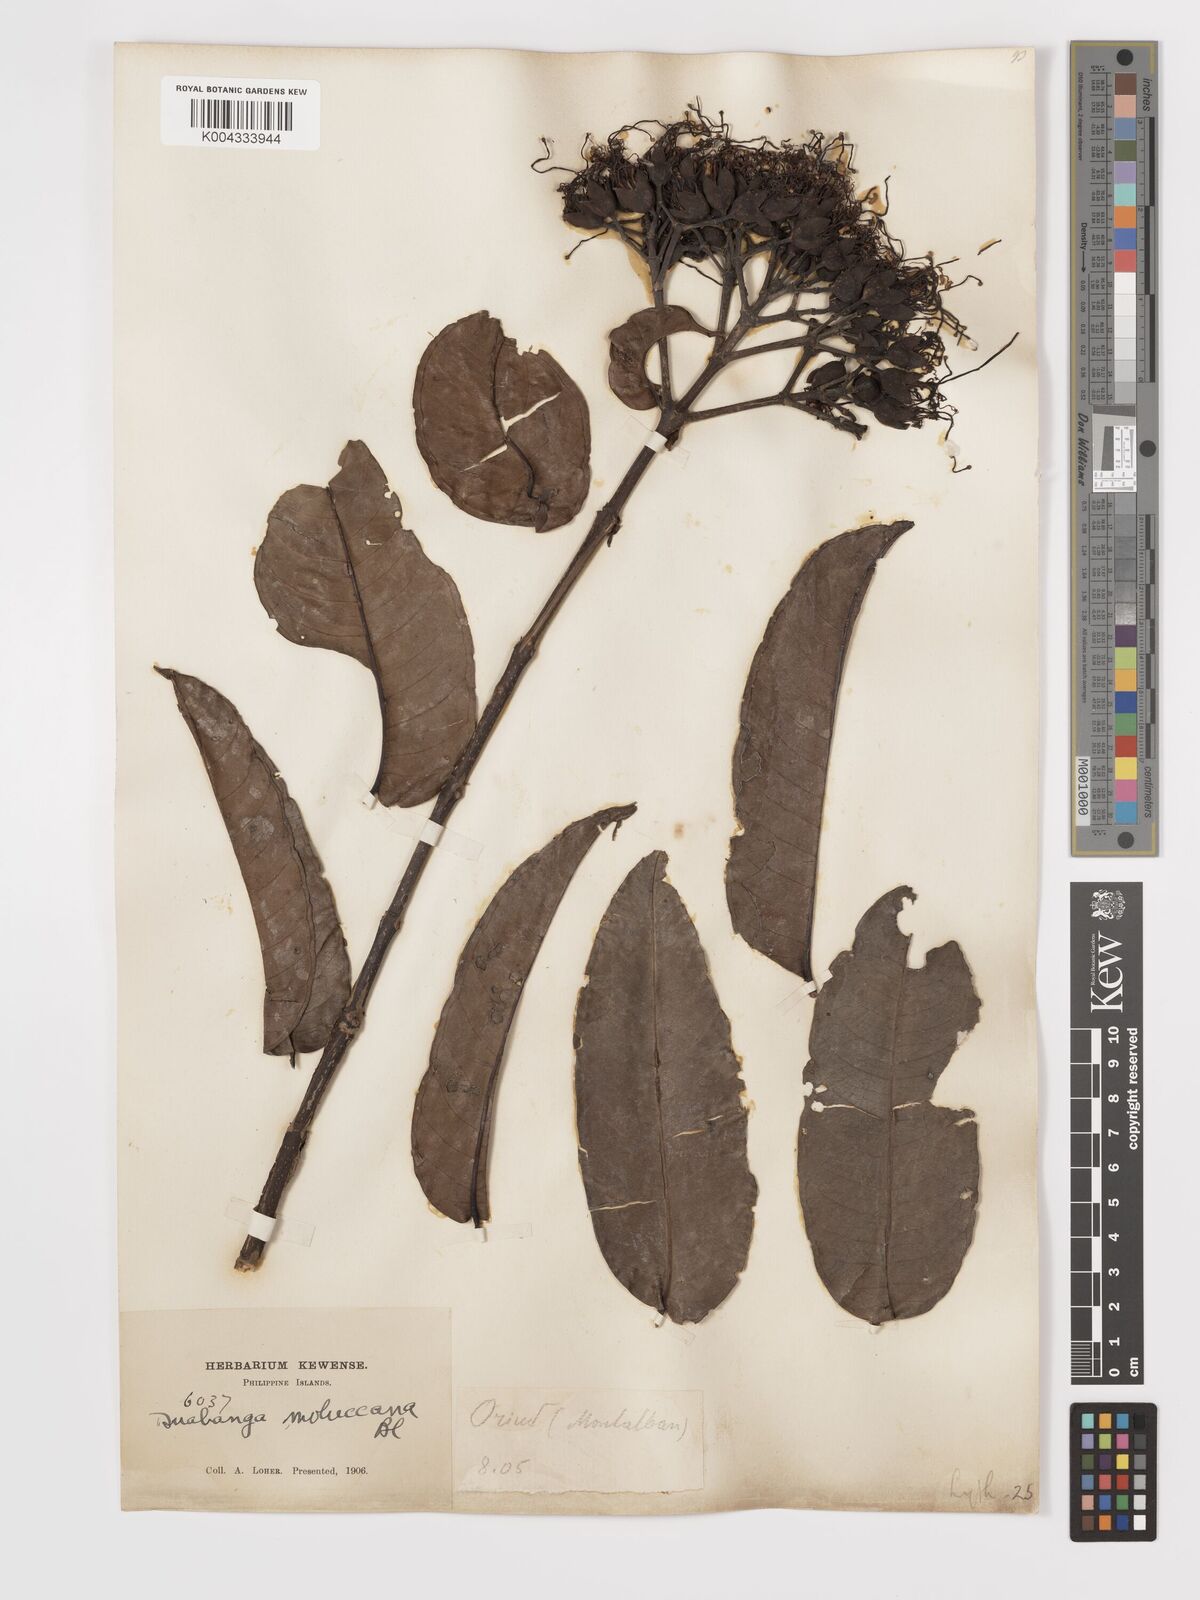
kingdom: Plantae
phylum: Tracheophyta
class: Magnoliopsida
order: Myrtales
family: Lythraceae
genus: Duabanga
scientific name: Duabanga moluccana
